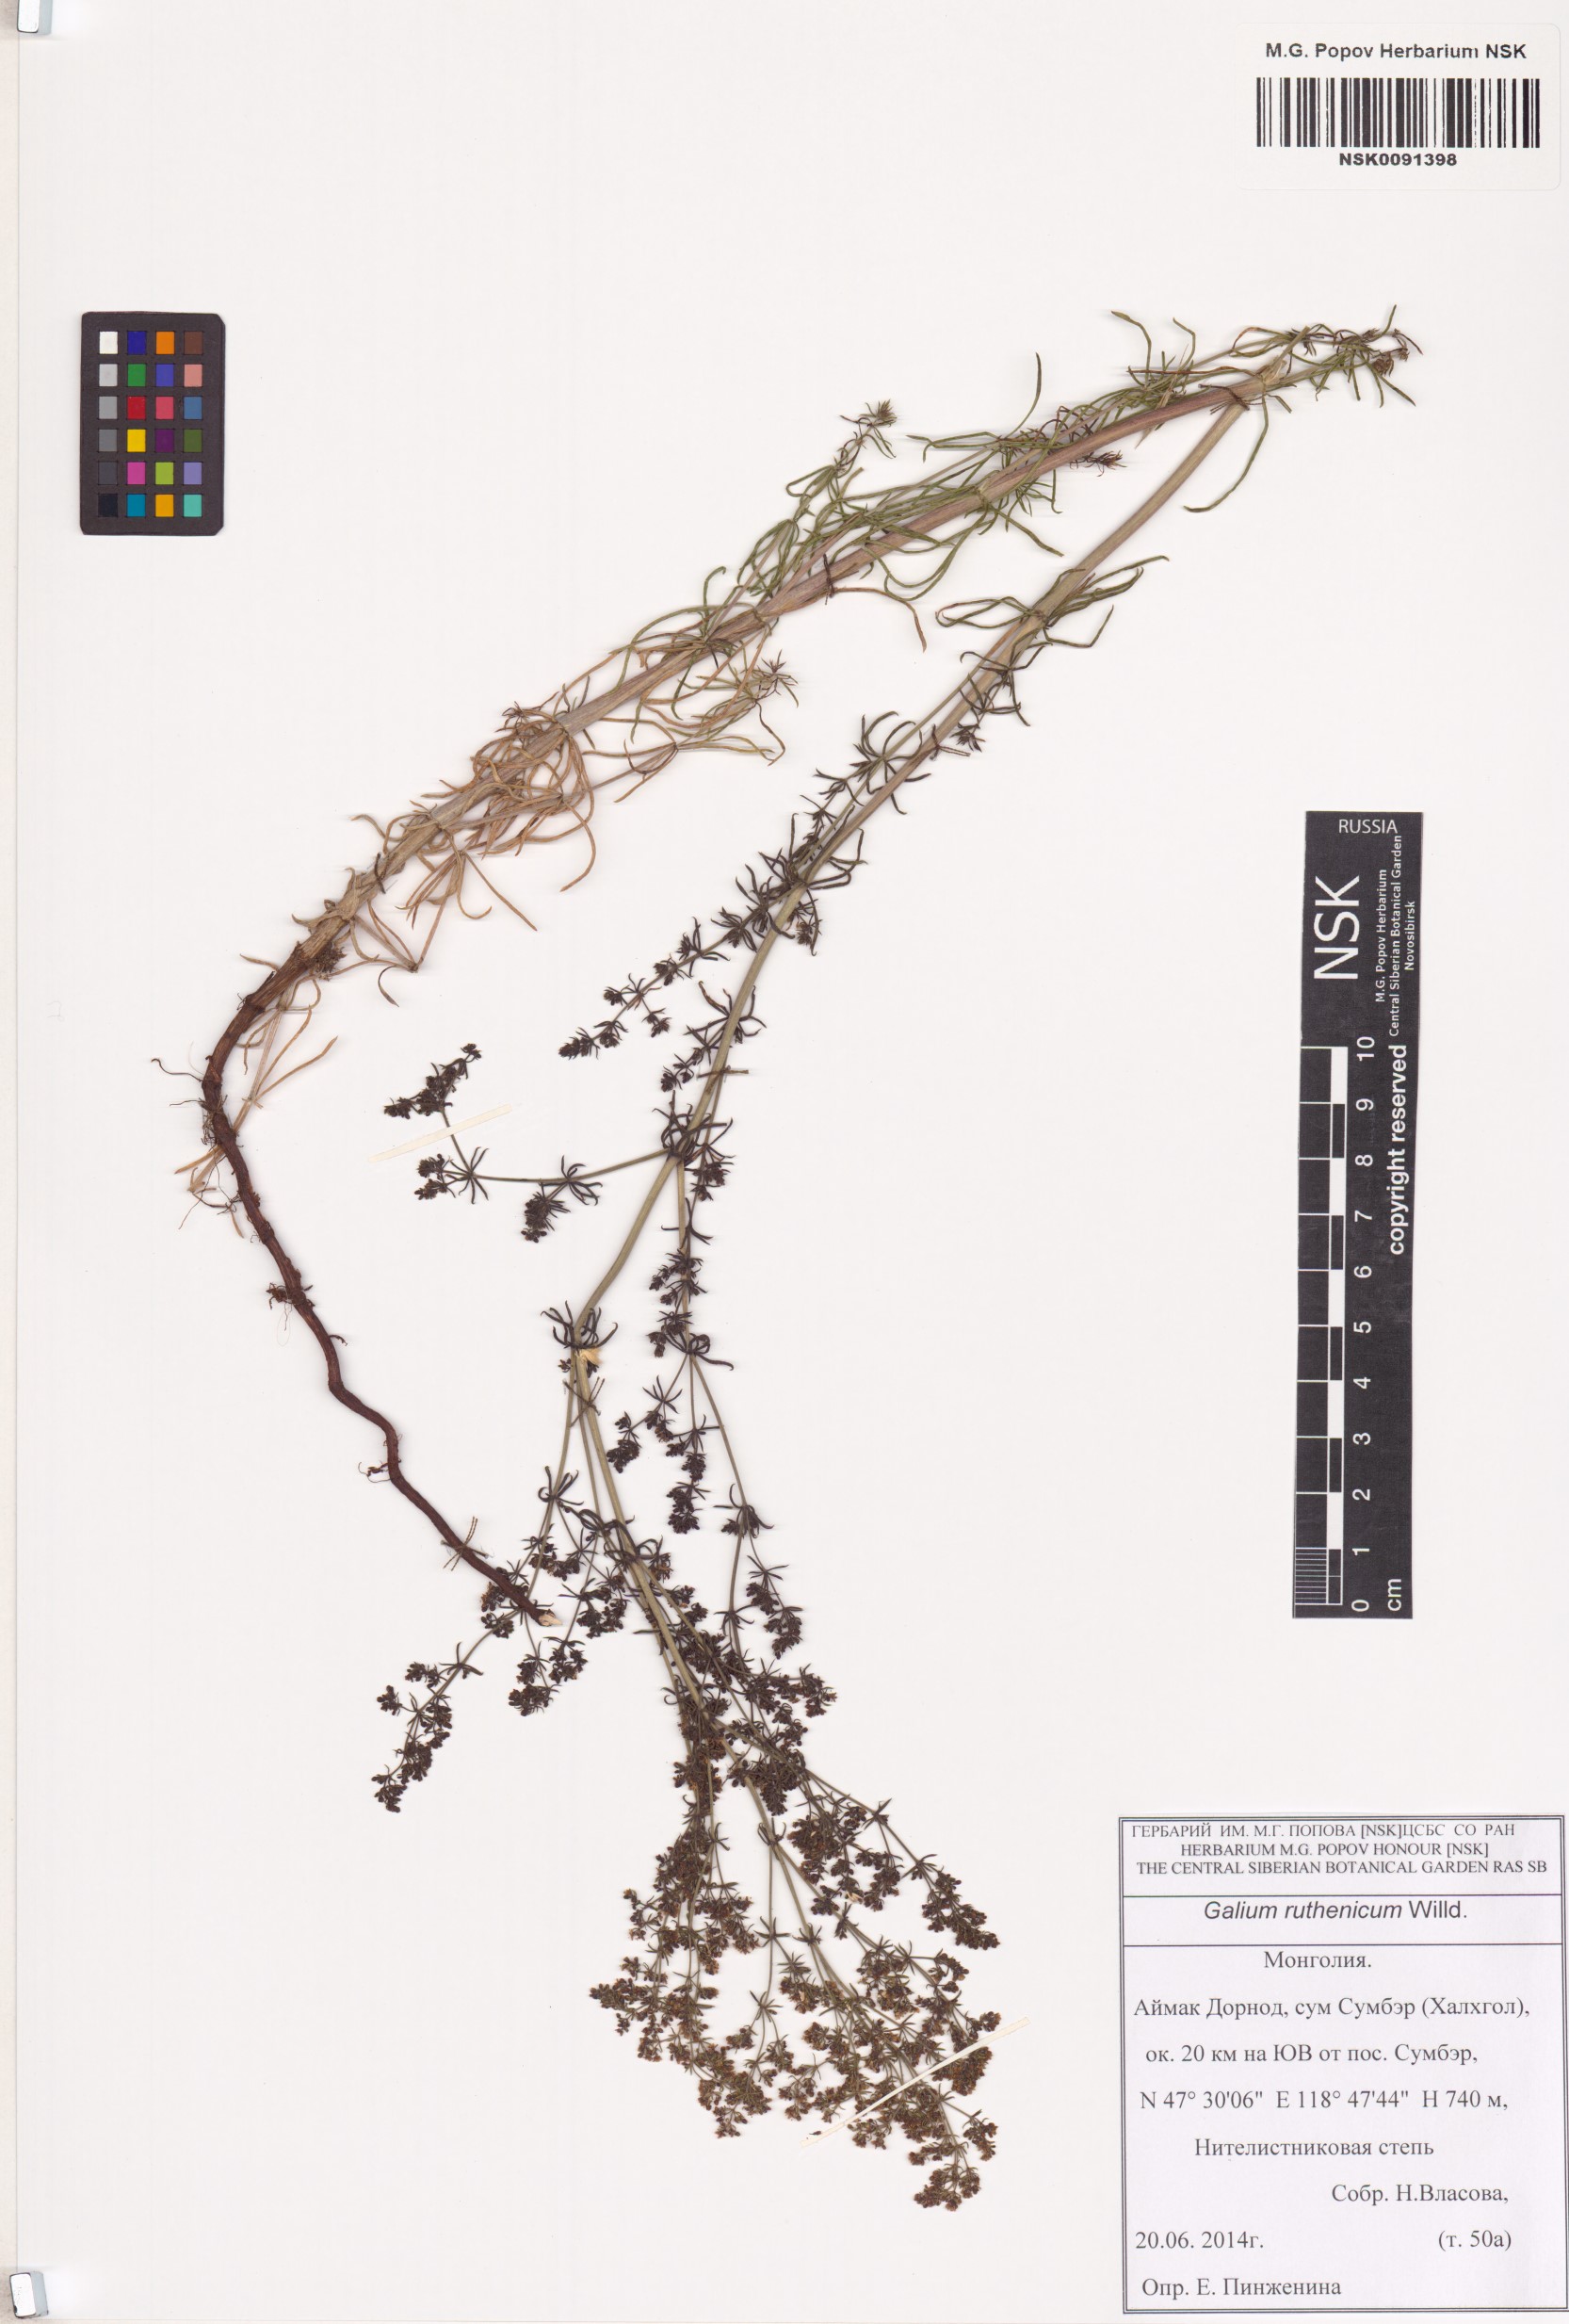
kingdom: Plantae
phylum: Tracheophyta
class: Magnoliopsida
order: Gentianales
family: Rubiaceae
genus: Galium
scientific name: Galium verum
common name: Lady's bedstraw
